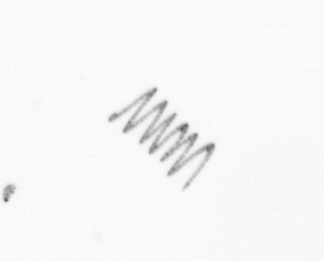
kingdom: Chromista
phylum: Ochrophyta
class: Bacillariophyceae
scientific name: Bacillariophyceae
